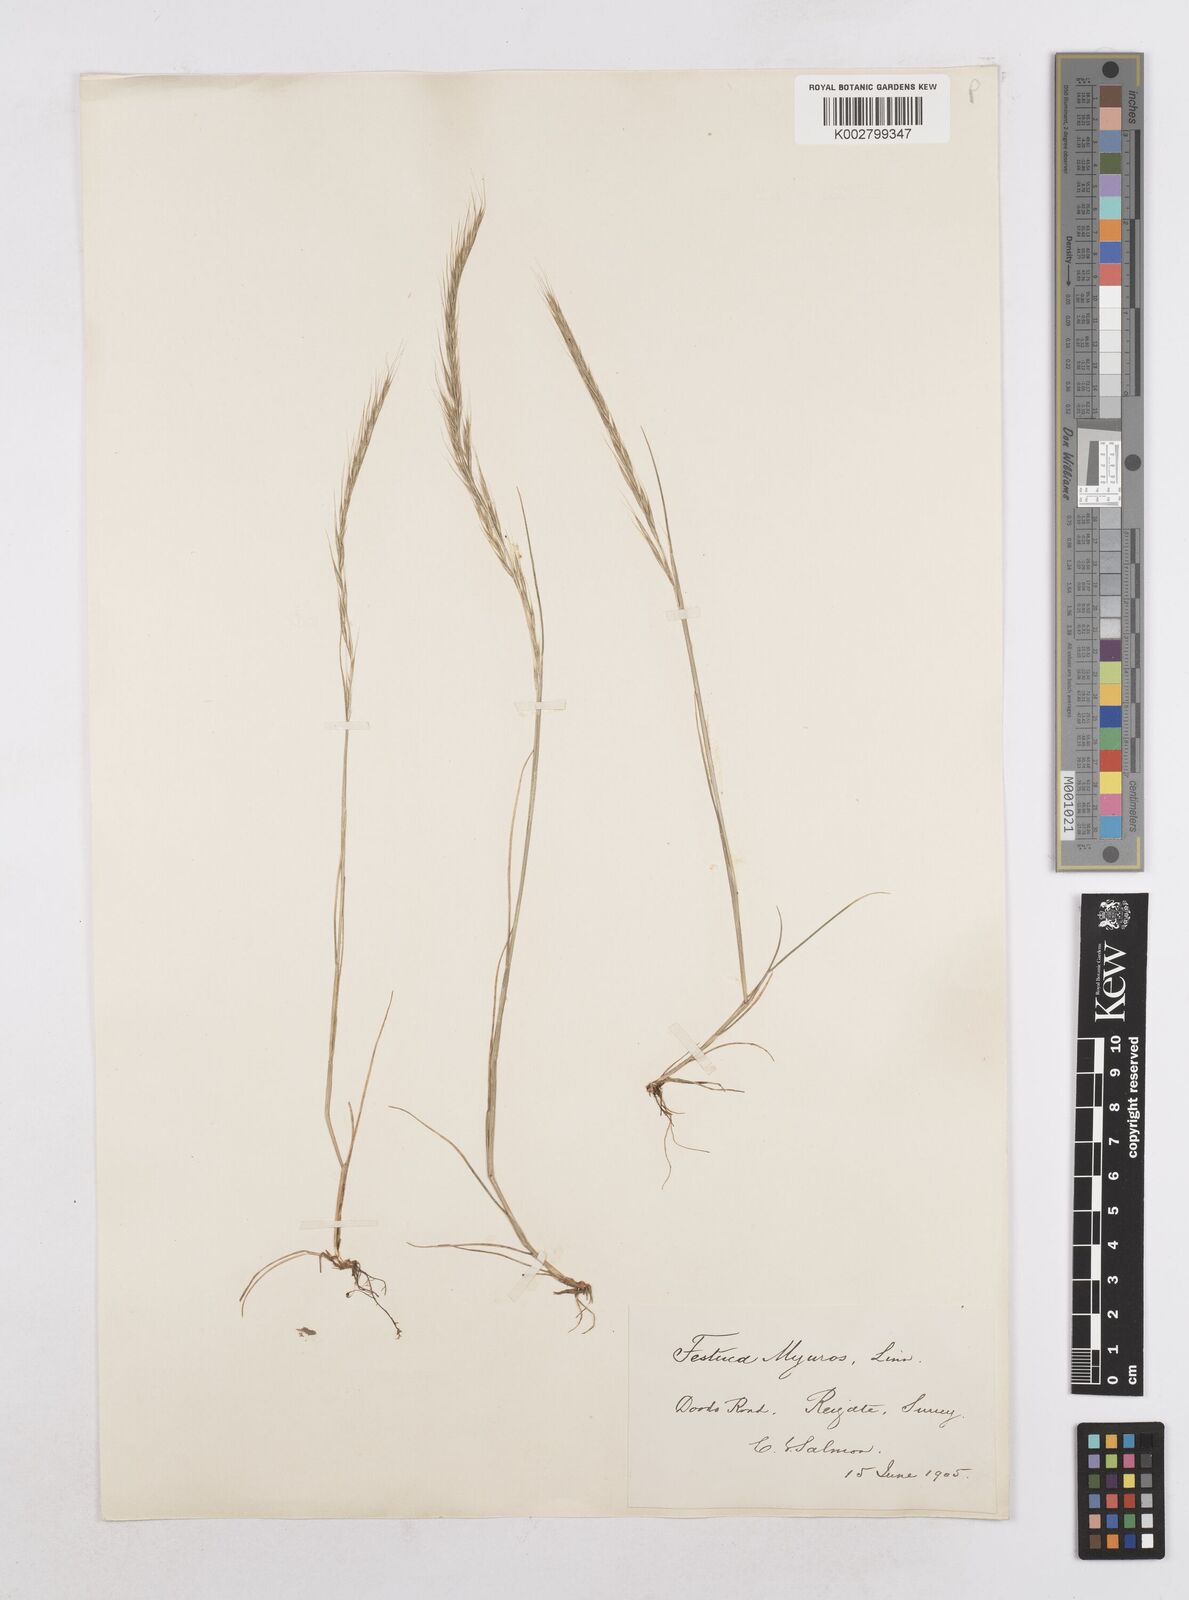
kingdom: Plantae
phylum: Tracheophyta
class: Liliopsida
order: Poales
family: Poaceae
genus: Festuca
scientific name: Festuca myuros
